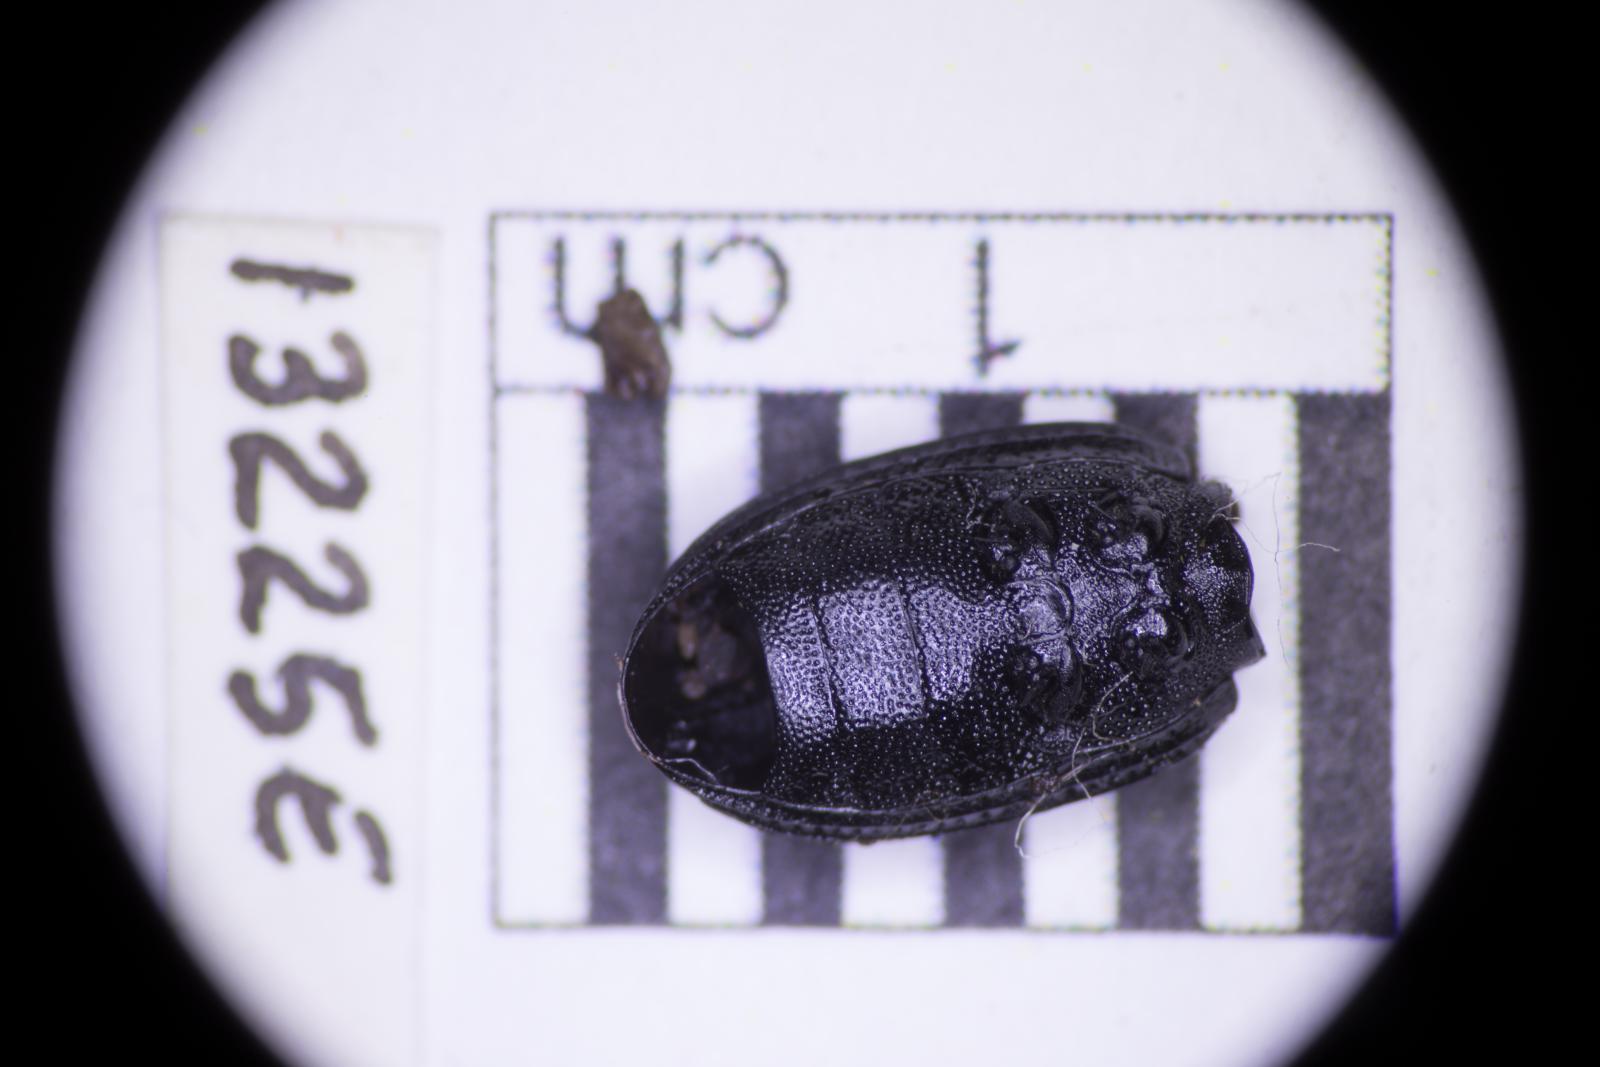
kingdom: Animalia
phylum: Arthropoda
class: Insecta
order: Coleoptera
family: Tenebrionidae
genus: Apsena
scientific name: Apsena laticornis
